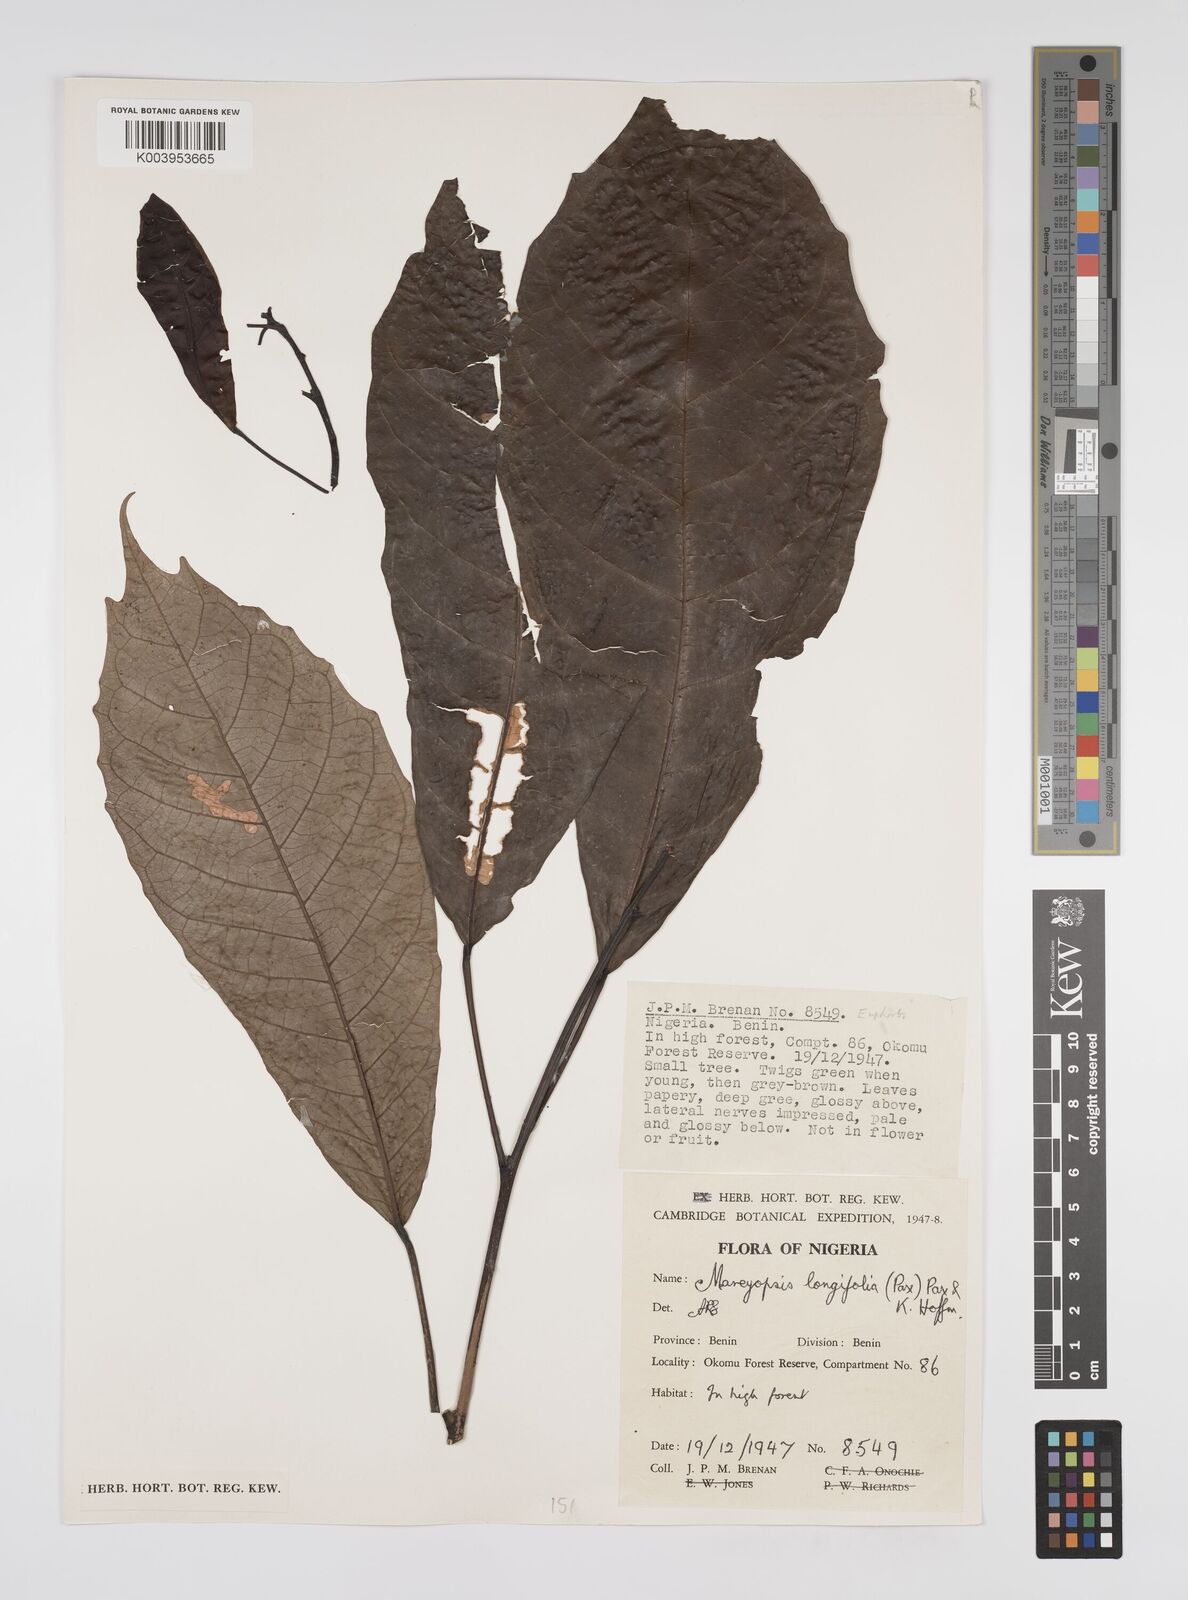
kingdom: Plantae
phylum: Tracheophyta
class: Magnoliopsida
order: Malpighiales
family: Euphorbiaceae
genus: Mareyopsis
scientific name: Mareyopsis longifolia
